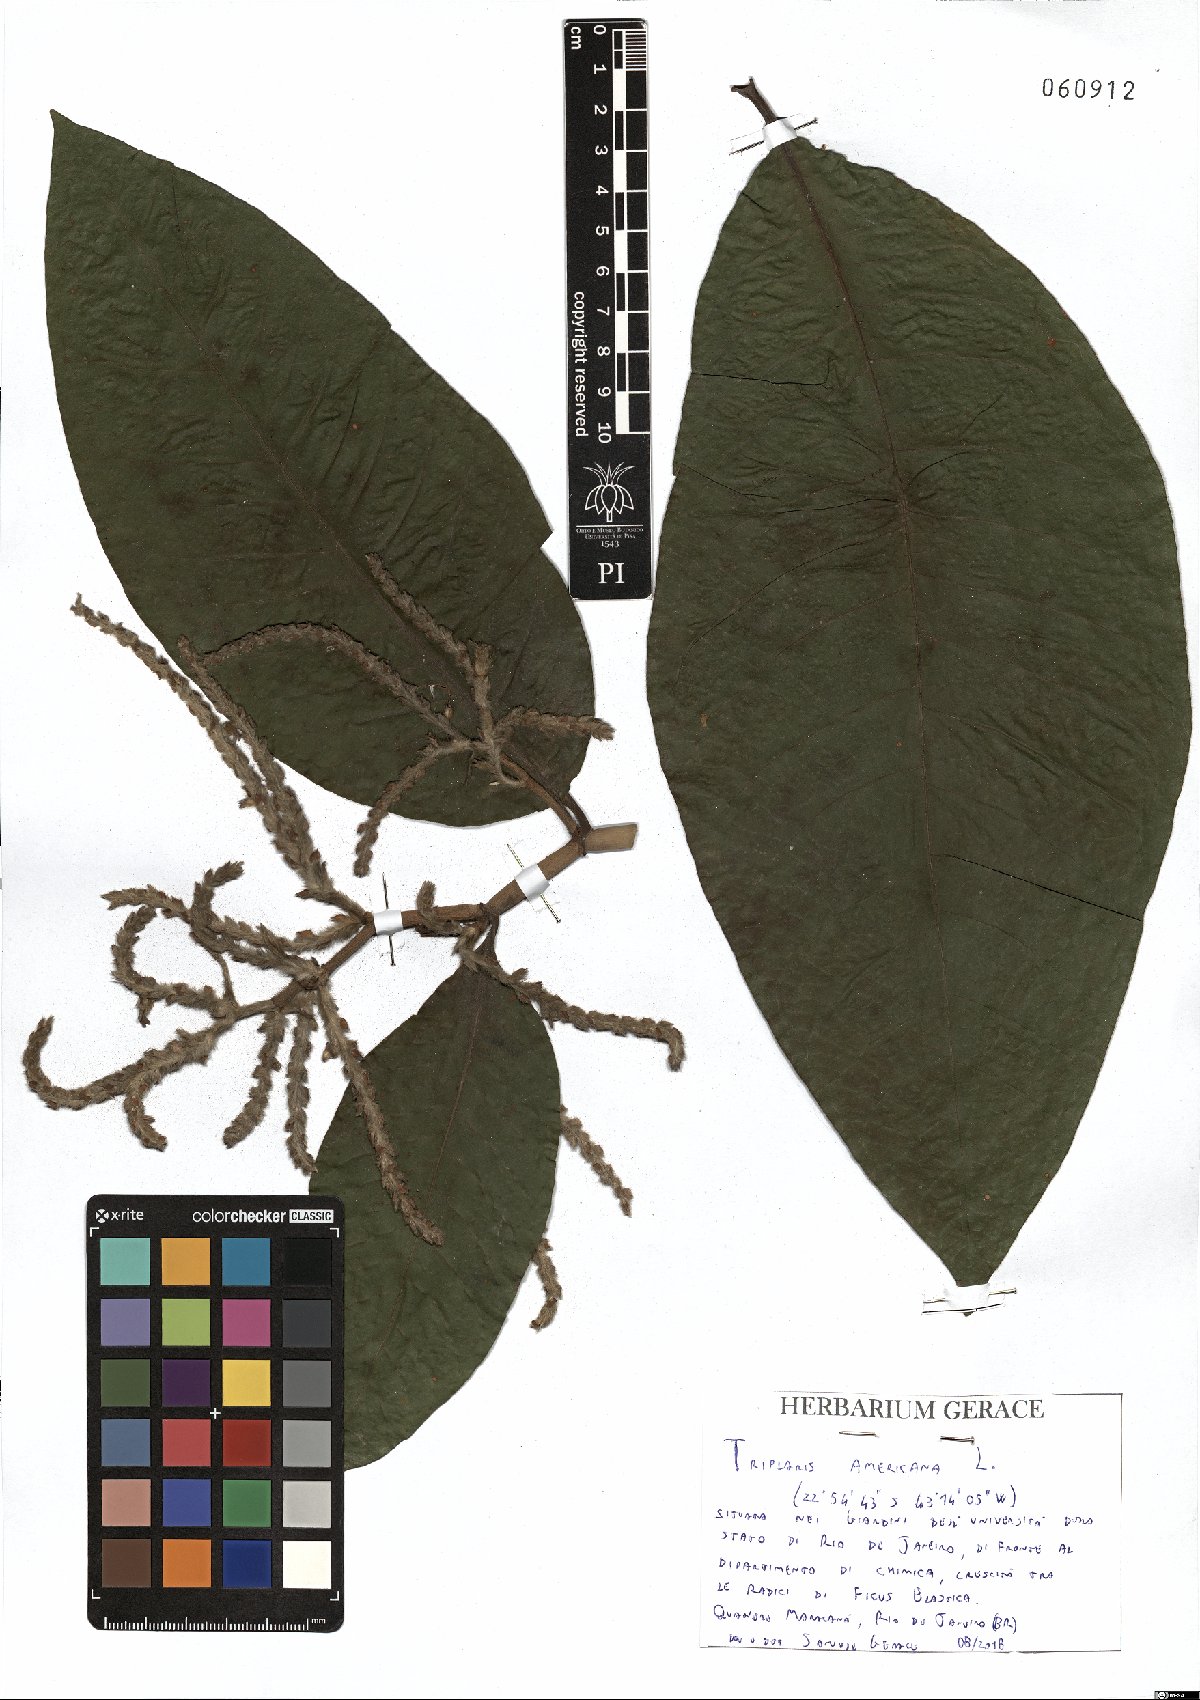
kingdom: Plantae
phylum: Tracheophyta
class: Magnoliopsida
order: Caryophyllales
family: Polygonaceae
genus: Triplaris
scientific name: Triplaris americana
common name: Ant-tree
